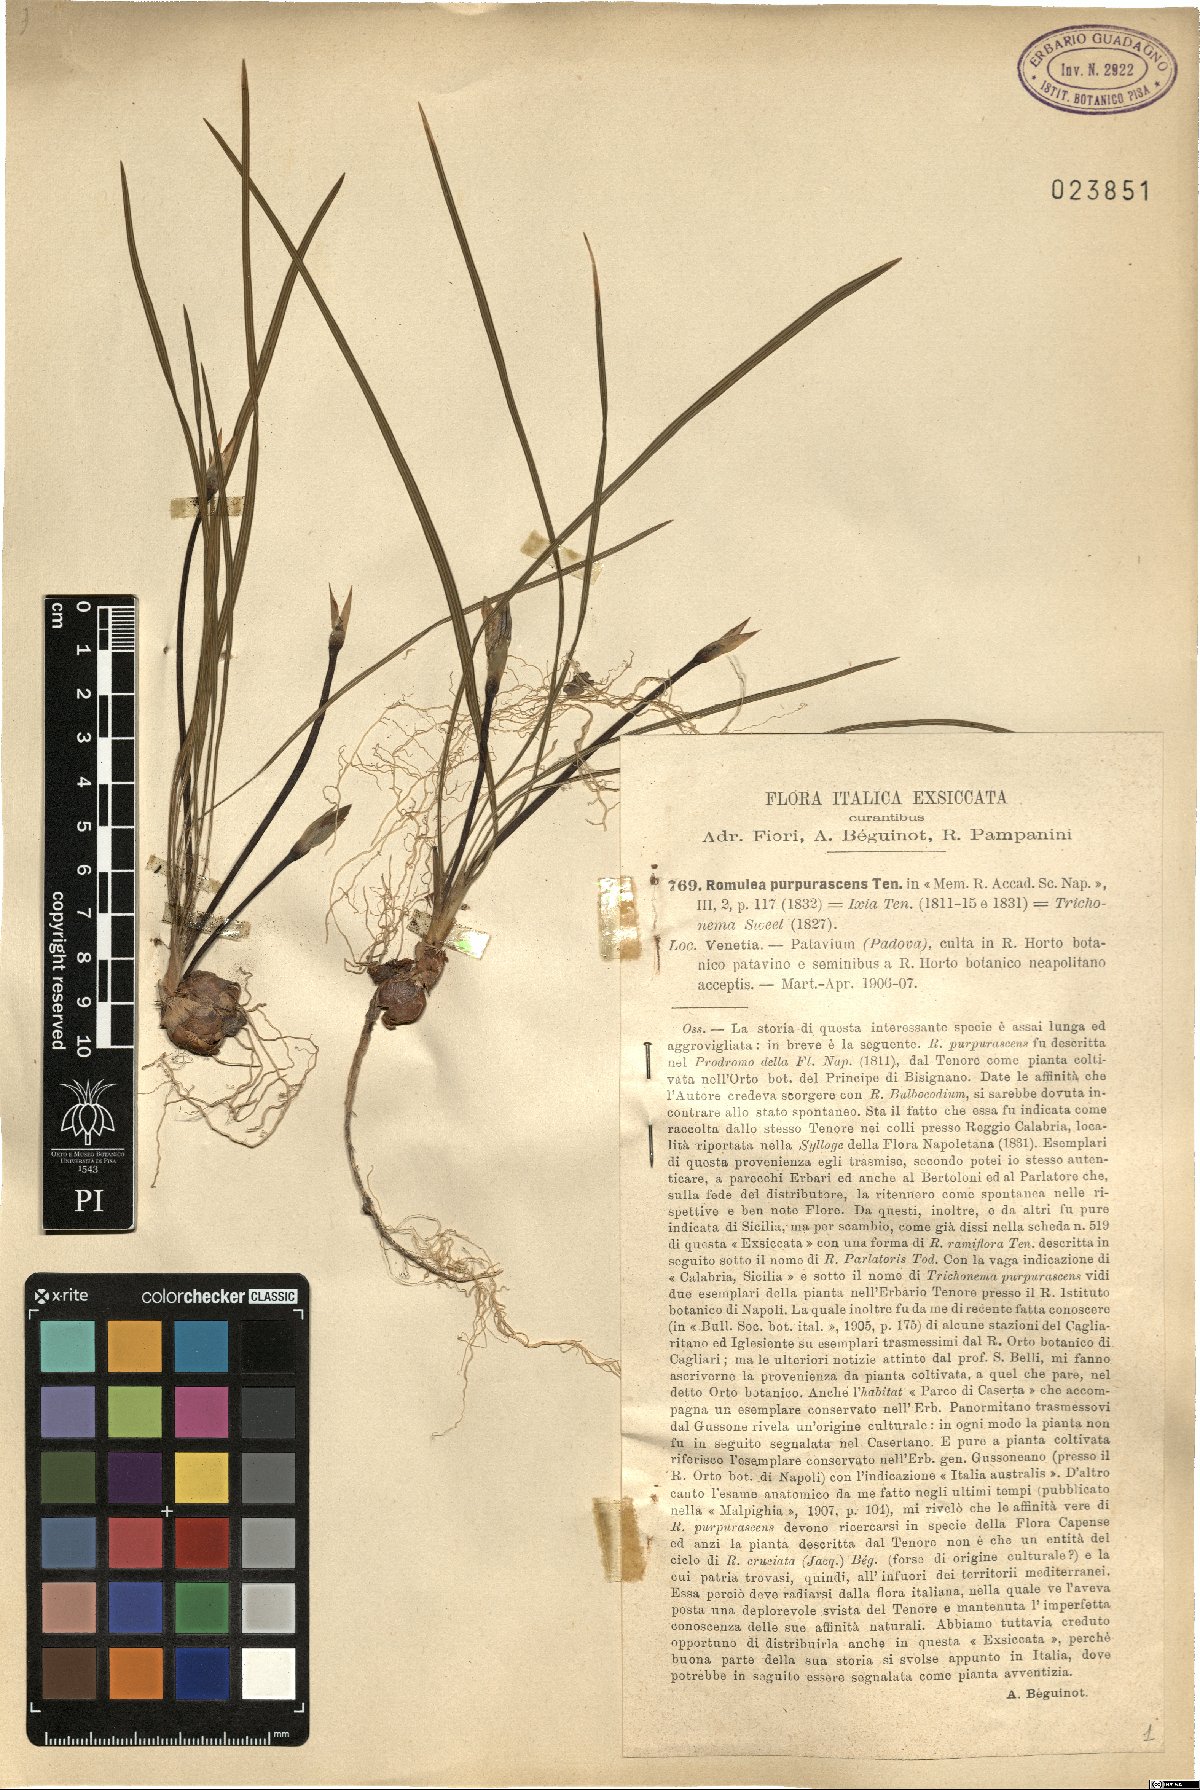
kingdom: Plantae
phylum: Tracheophyta
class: Liliopsida
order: Asparagales
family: Iridaceae
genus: Romulea
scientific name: Romulea bulbocodium
